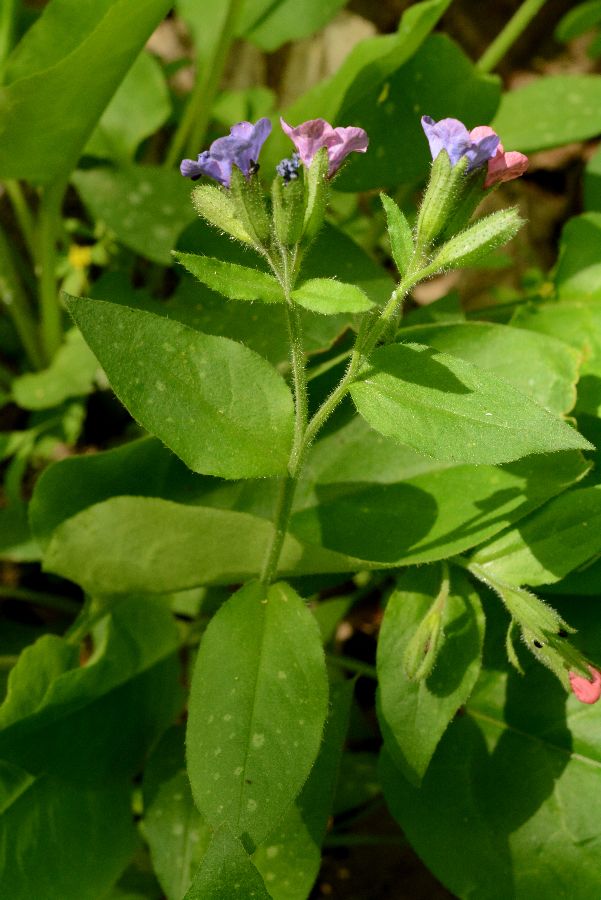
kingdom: Plantae
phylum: Tracheophyta
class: Magnoliopsida
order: Boraginales
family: Boraginaceae
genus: Pulmonaria
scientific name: Pulmonaria
